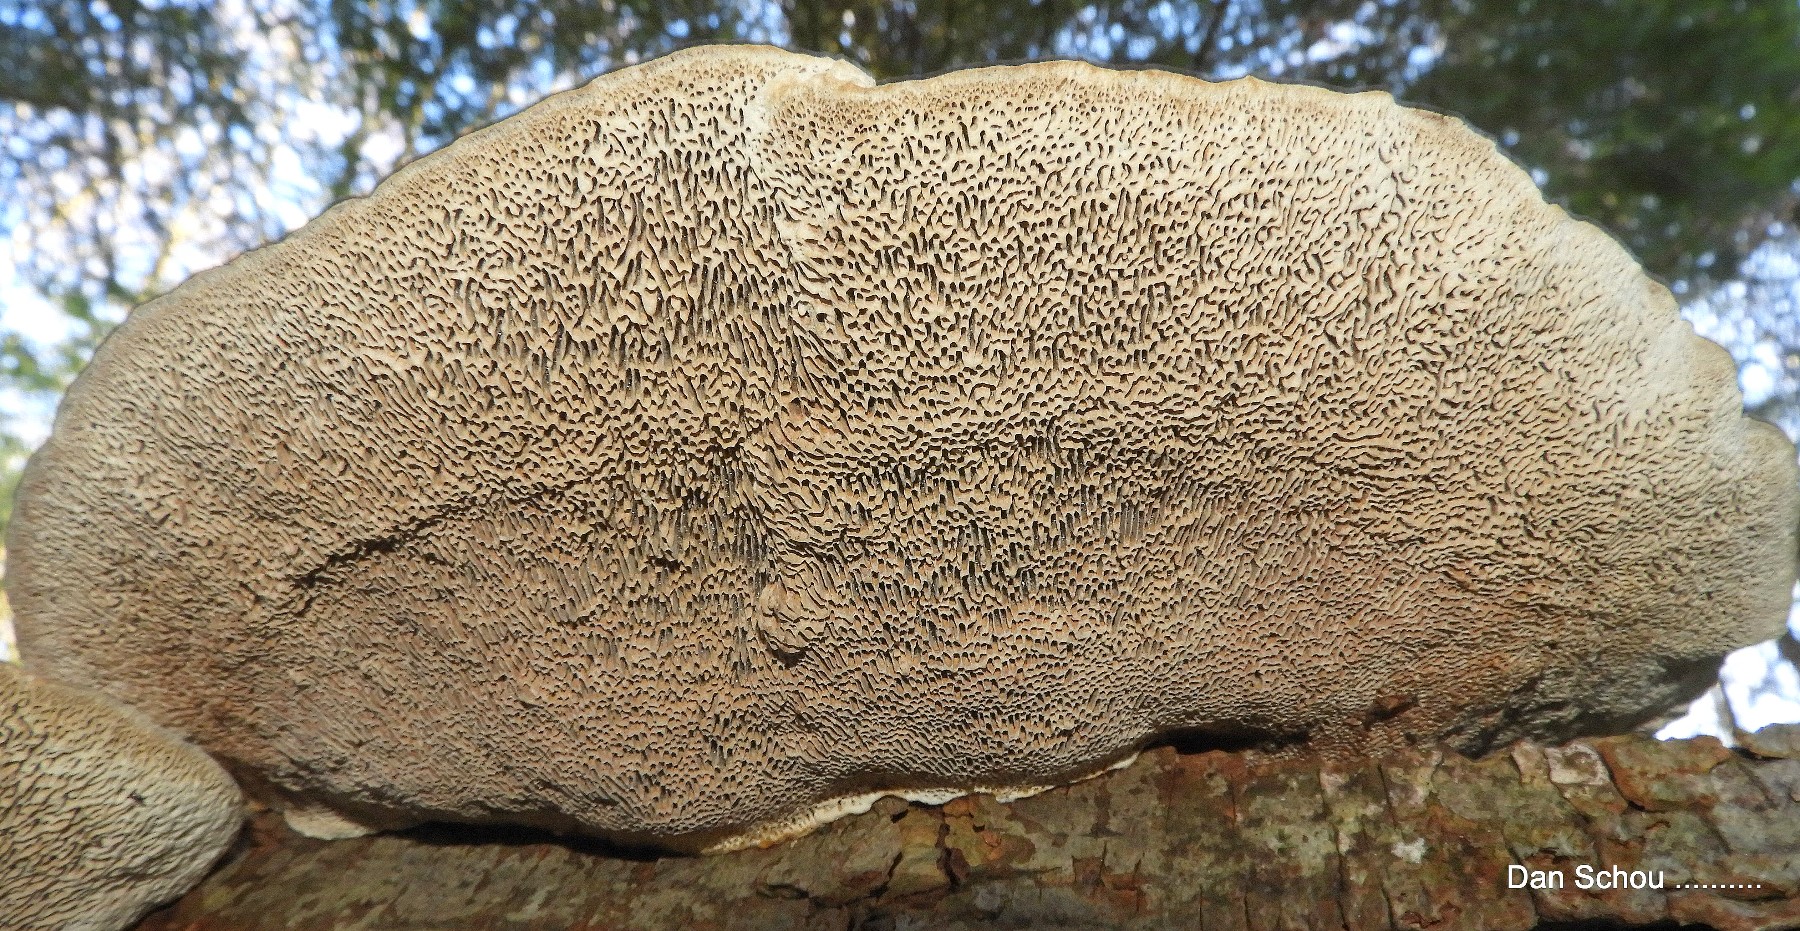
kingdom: Fungi
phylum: Basidiomycota
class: Agaricomycetes
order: Polyporales
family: Polyporaceae
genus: Daedaleopsis
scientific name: Daedaleopsis confragosa
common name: rødmende læderporesvamp
